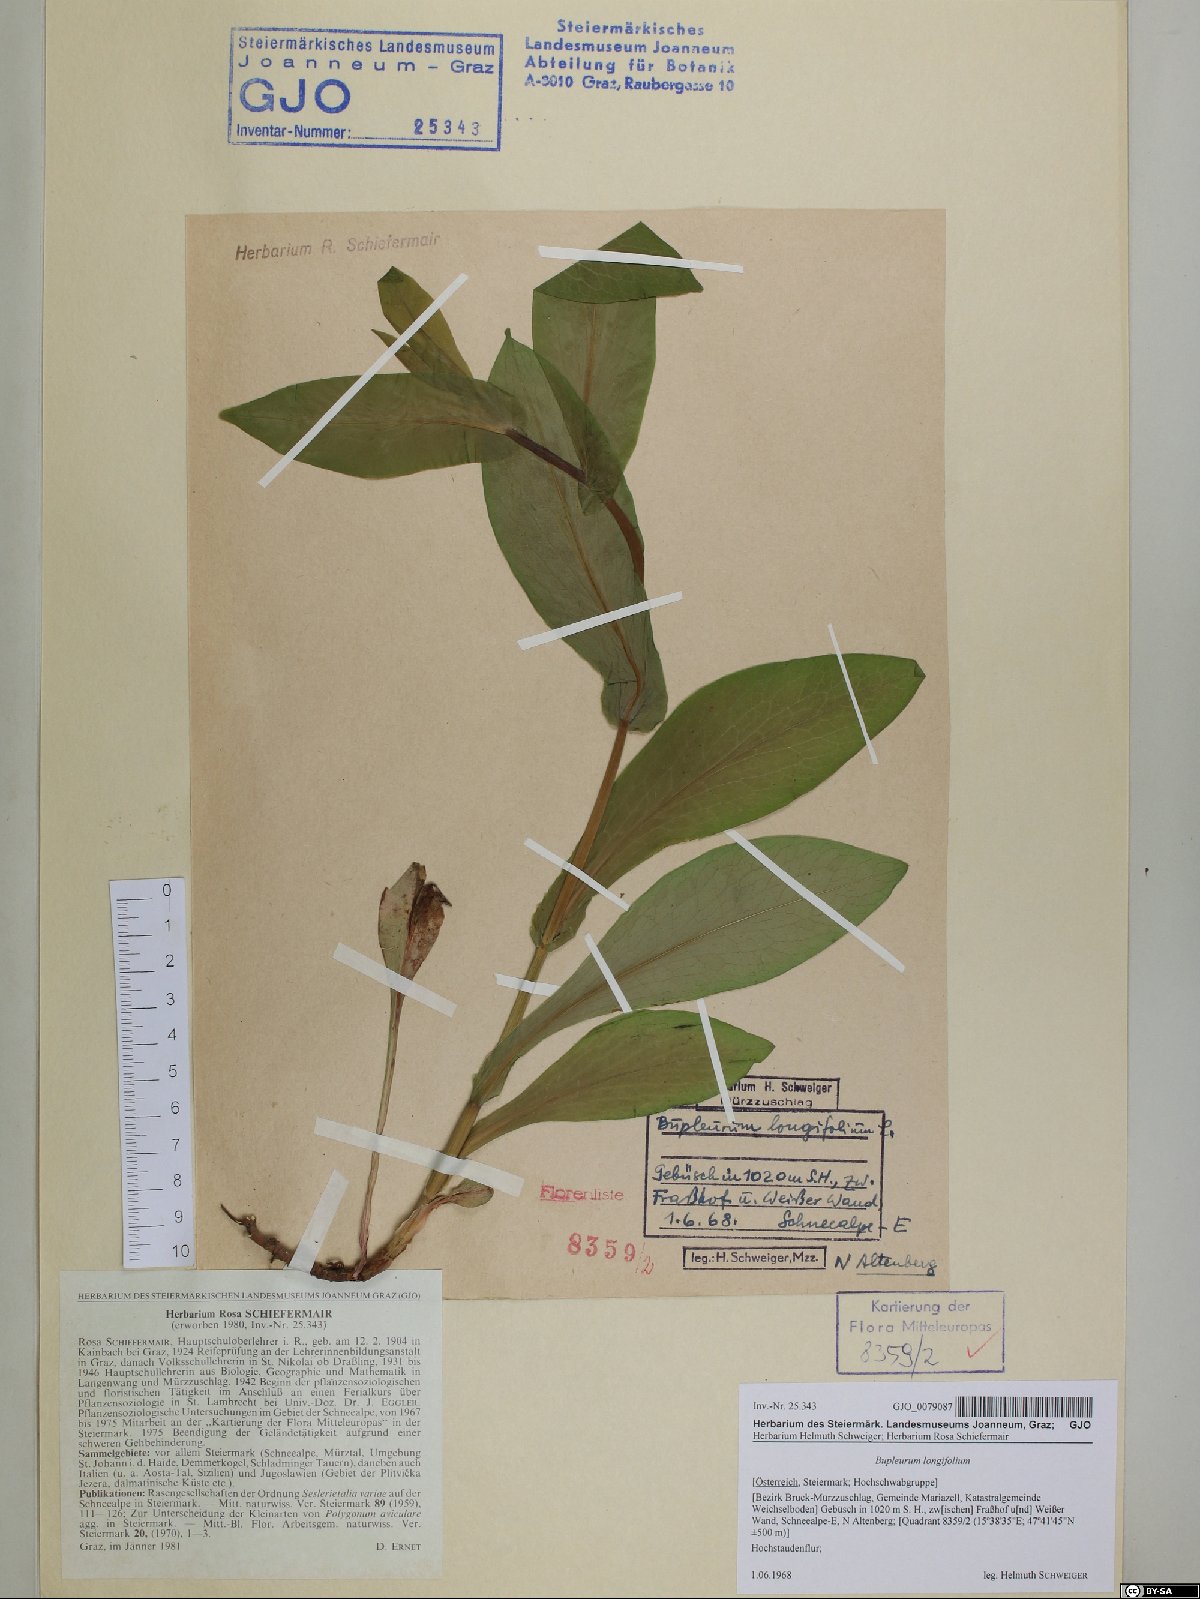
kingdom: Plantae
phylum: Tracheophyta
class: Magnoliopsida
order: Apiales
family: Apiaceae
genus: Bupleurum
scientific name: Bupleurum longifolium
